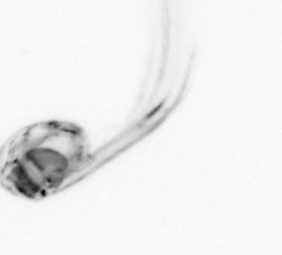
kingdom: Animalia
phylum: Chordata
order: Copelata
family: Fritillariidae
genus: Appendicularia
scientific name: Appendicularia
